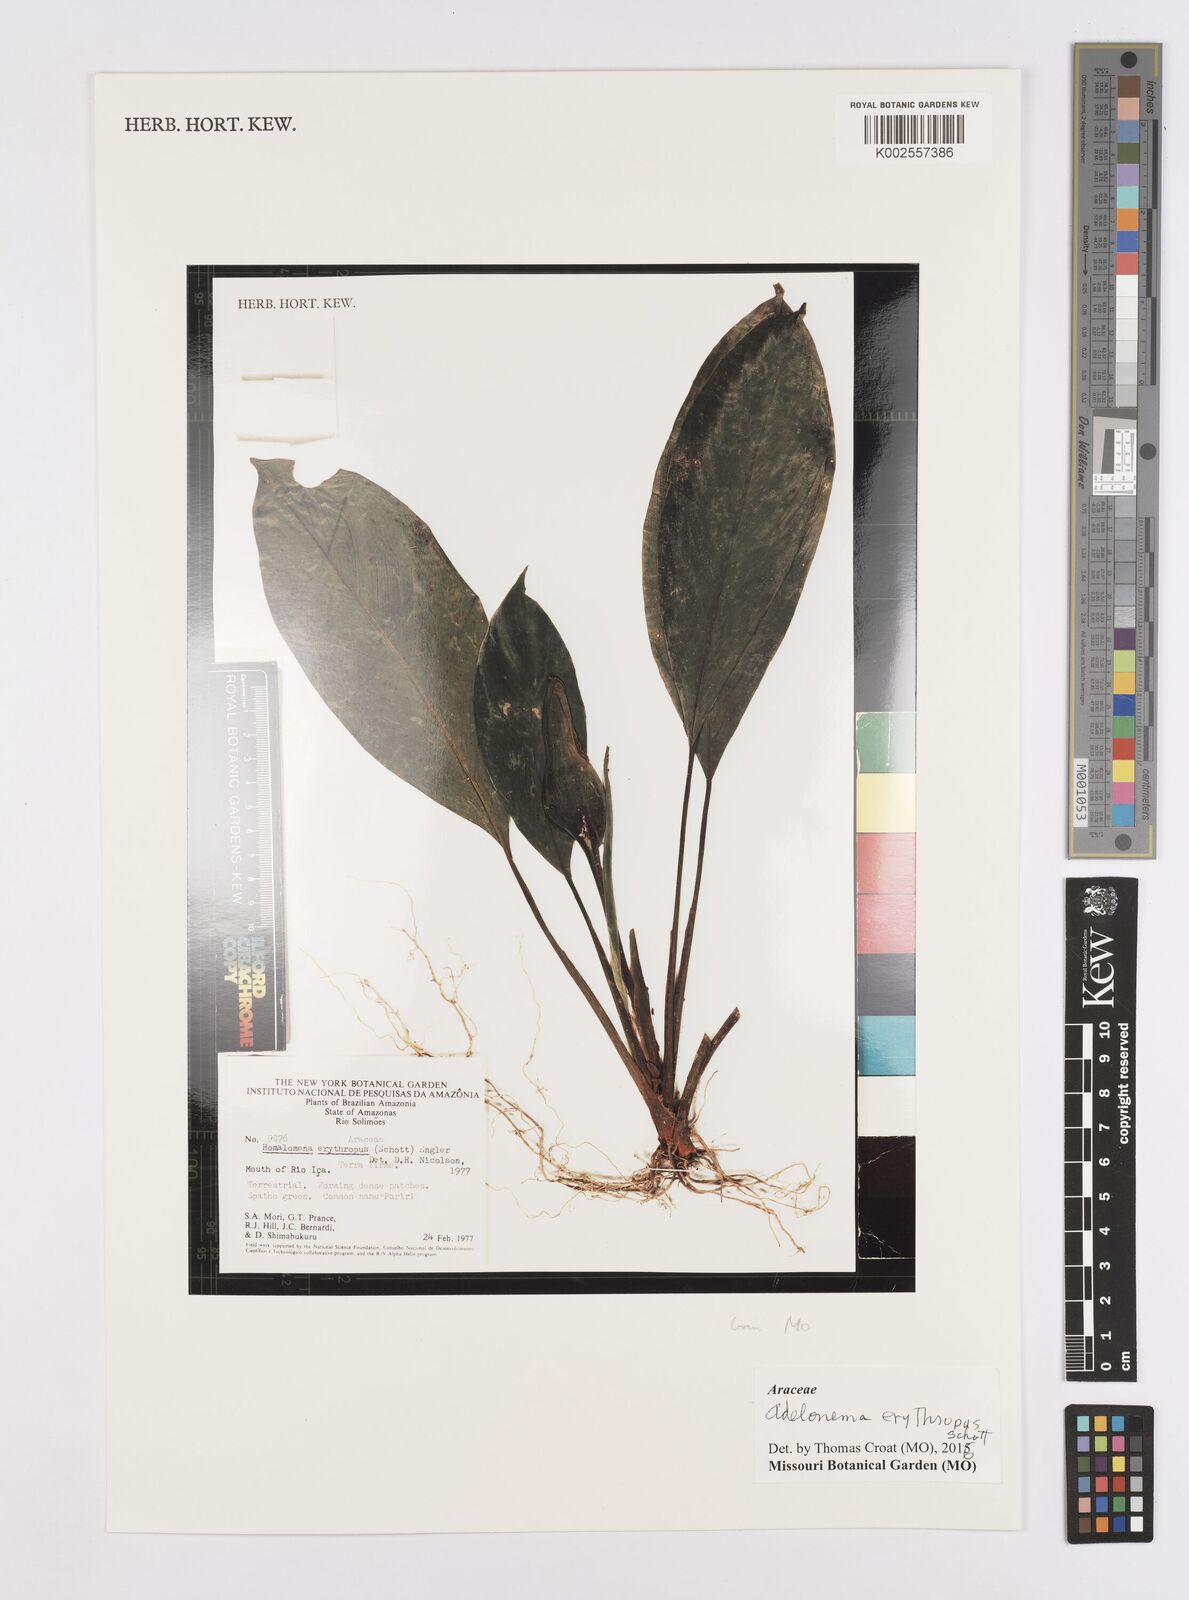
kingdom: Plantae
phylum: Tracheophyta
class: Liliopsida
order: Alismatales
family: Araceae
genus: Adelonema
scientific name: Adelonema erythropus
